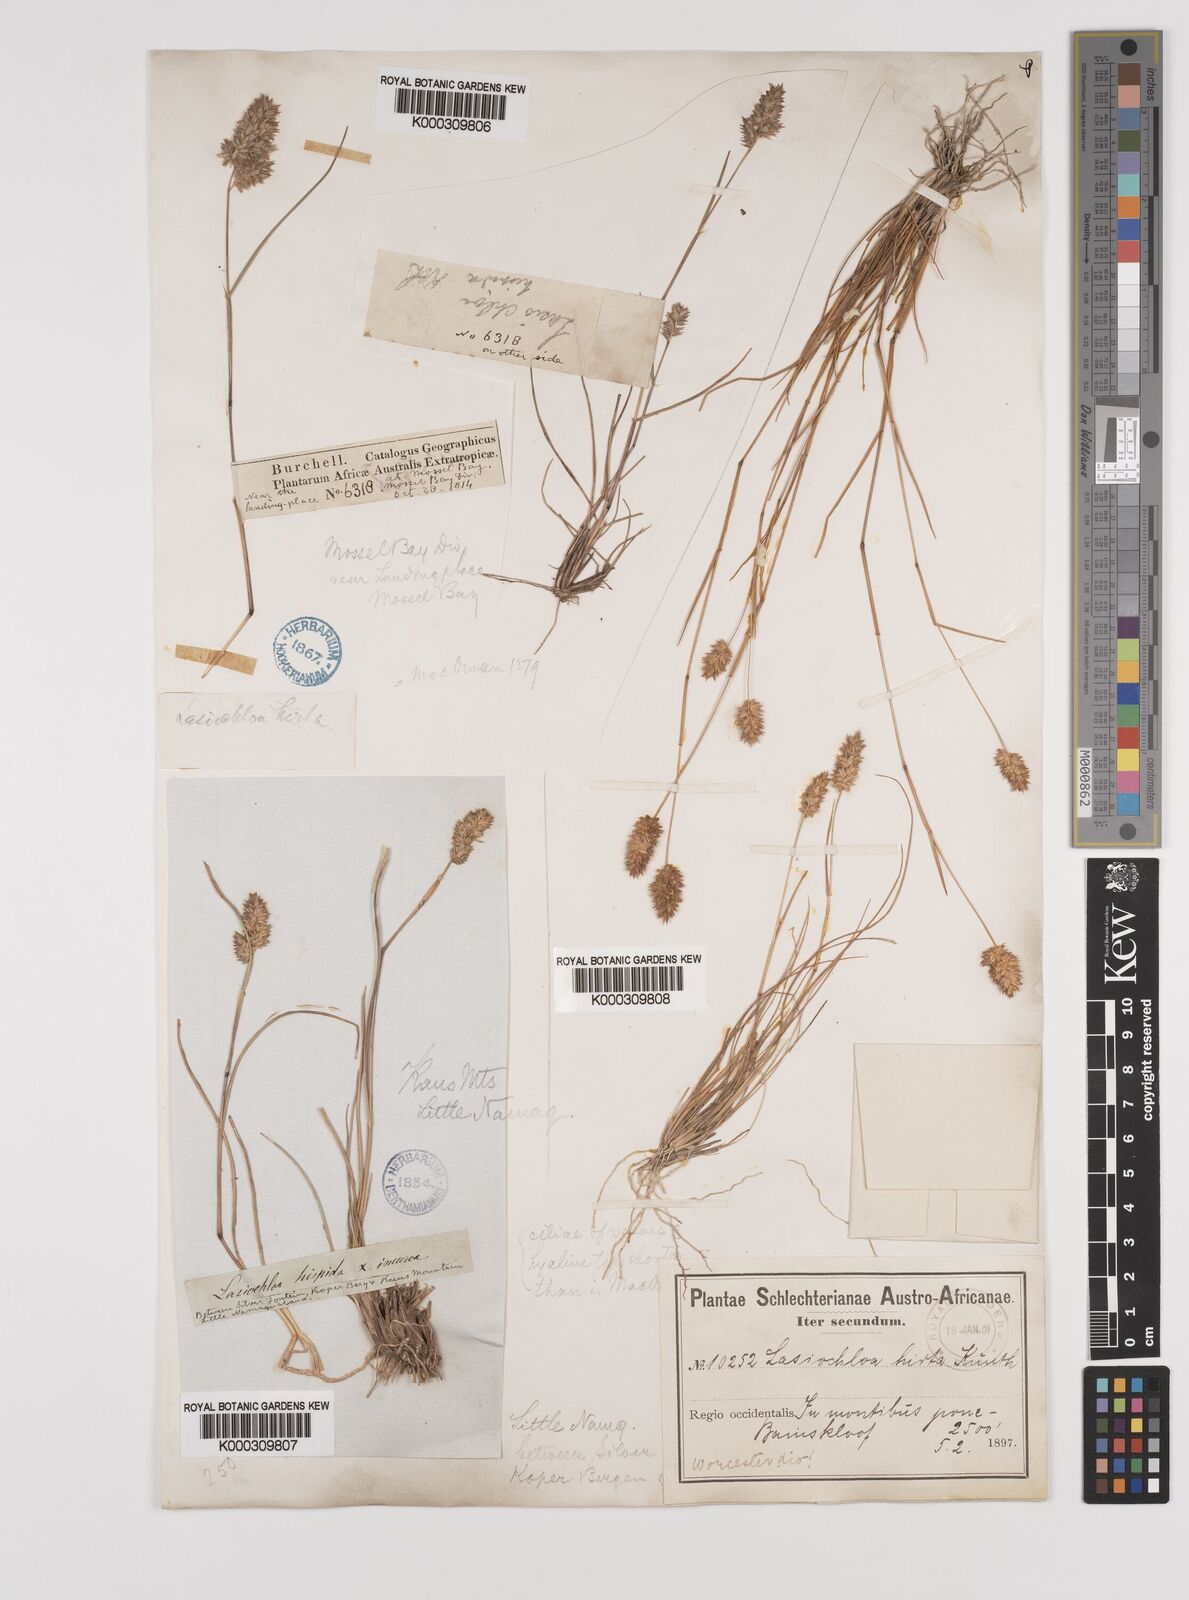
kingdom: Plantae
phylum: Tracheophyta
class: Liliopsida
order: Poales
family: Poaceae
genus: Tribolium
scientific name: Tribolium hispidum
